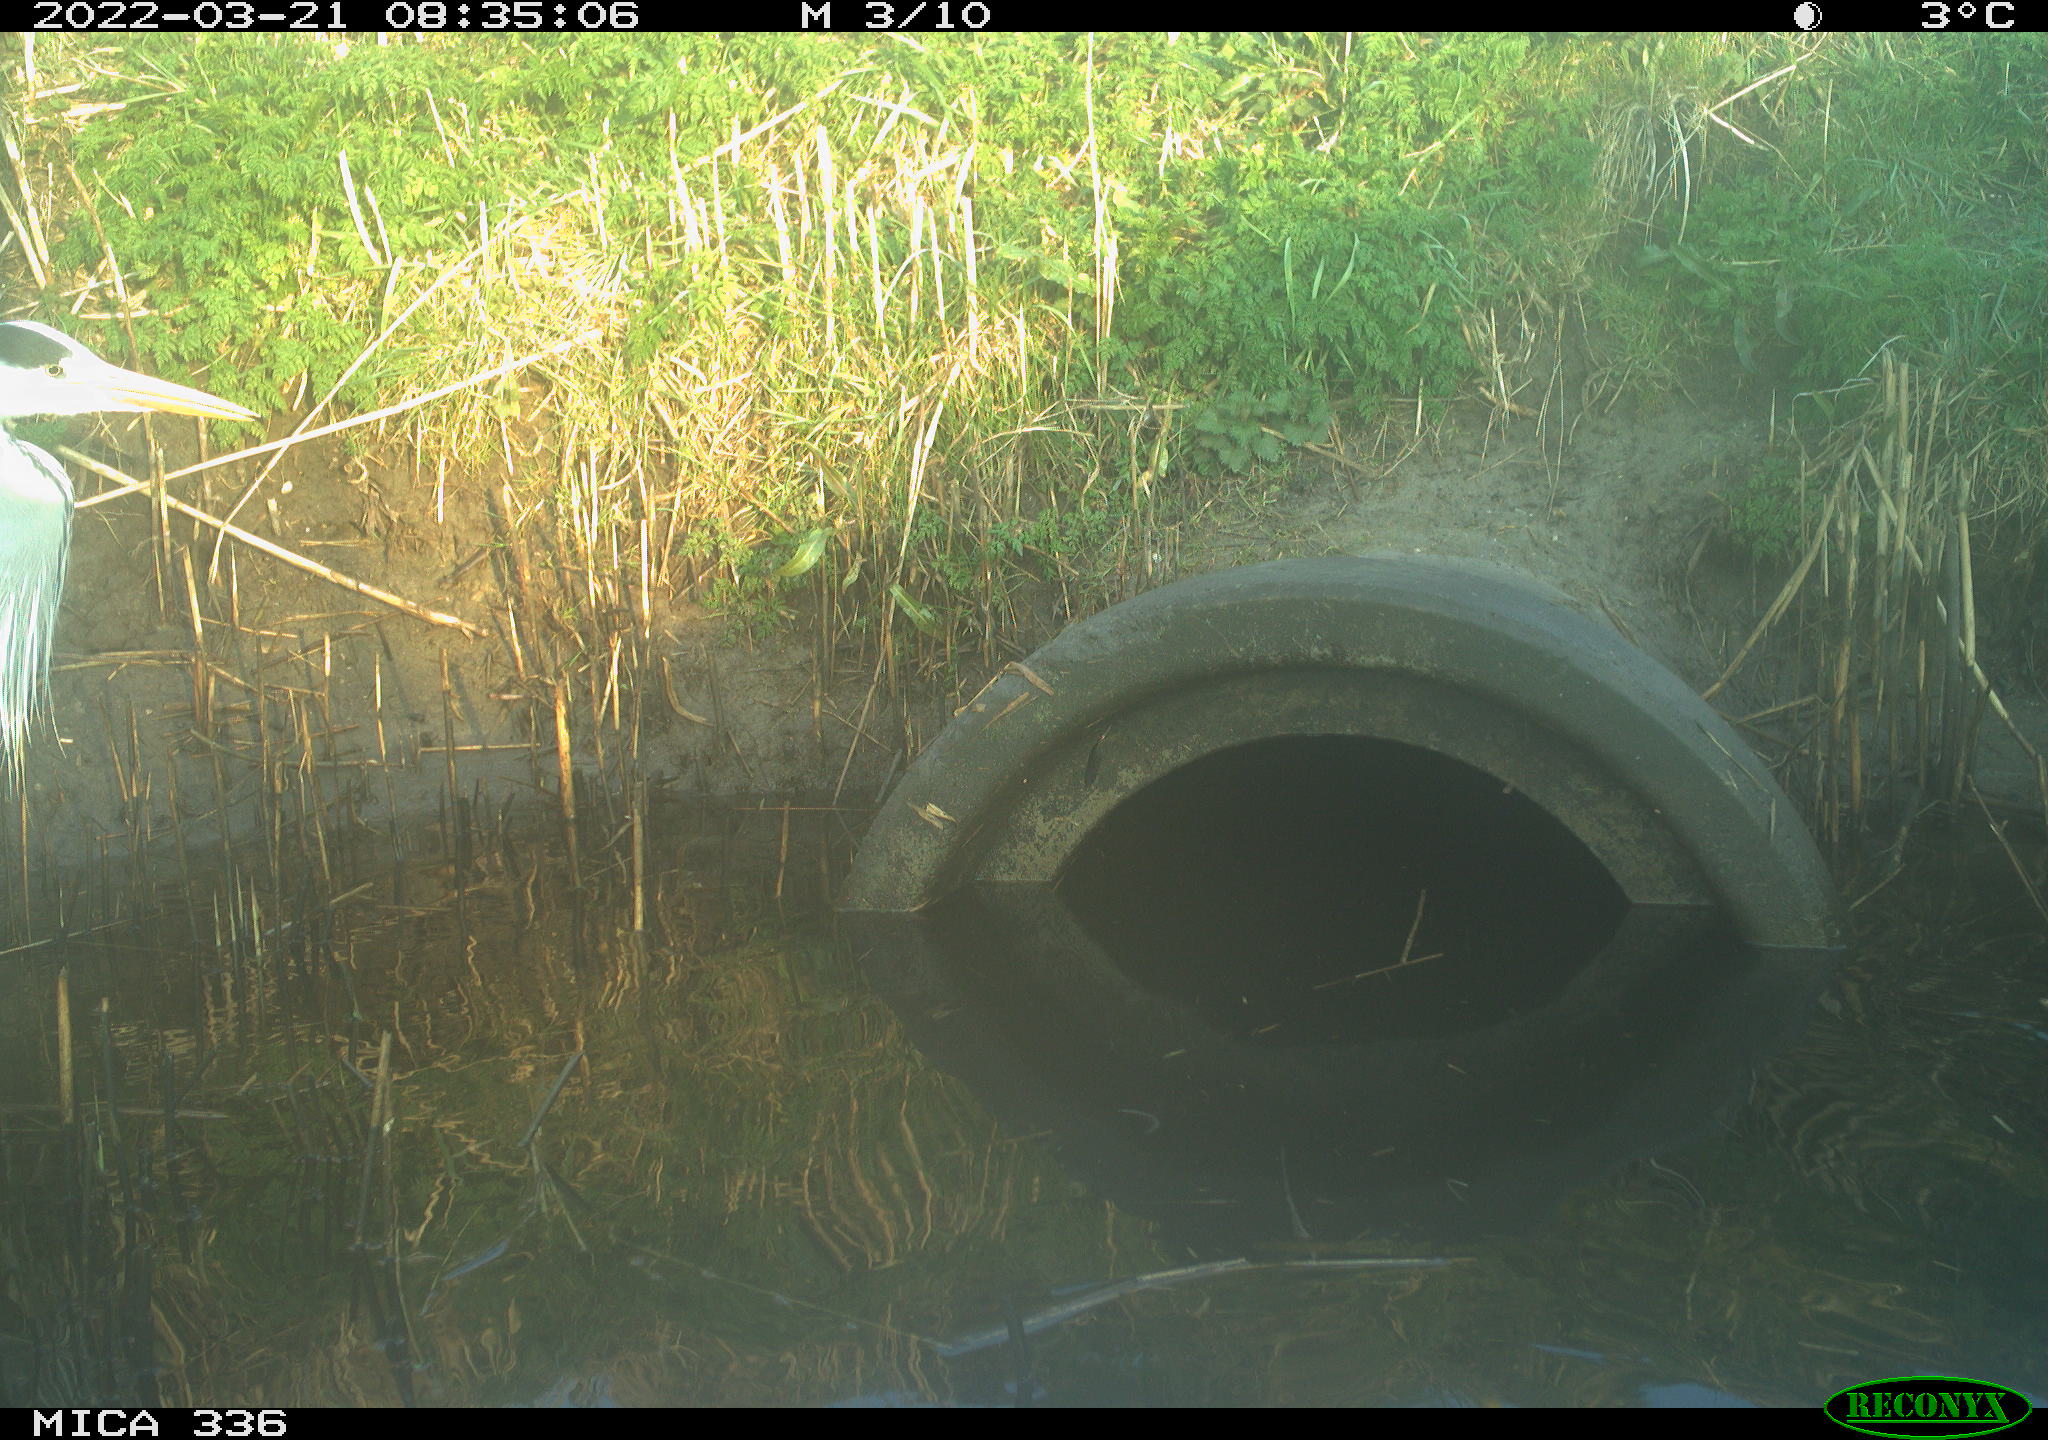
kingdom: Animalia
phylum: Chordata
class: Aves
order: Pelecaniformes
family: Ardeidae
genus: Ardea
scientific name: Ardea cinerea
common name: Grey heron
